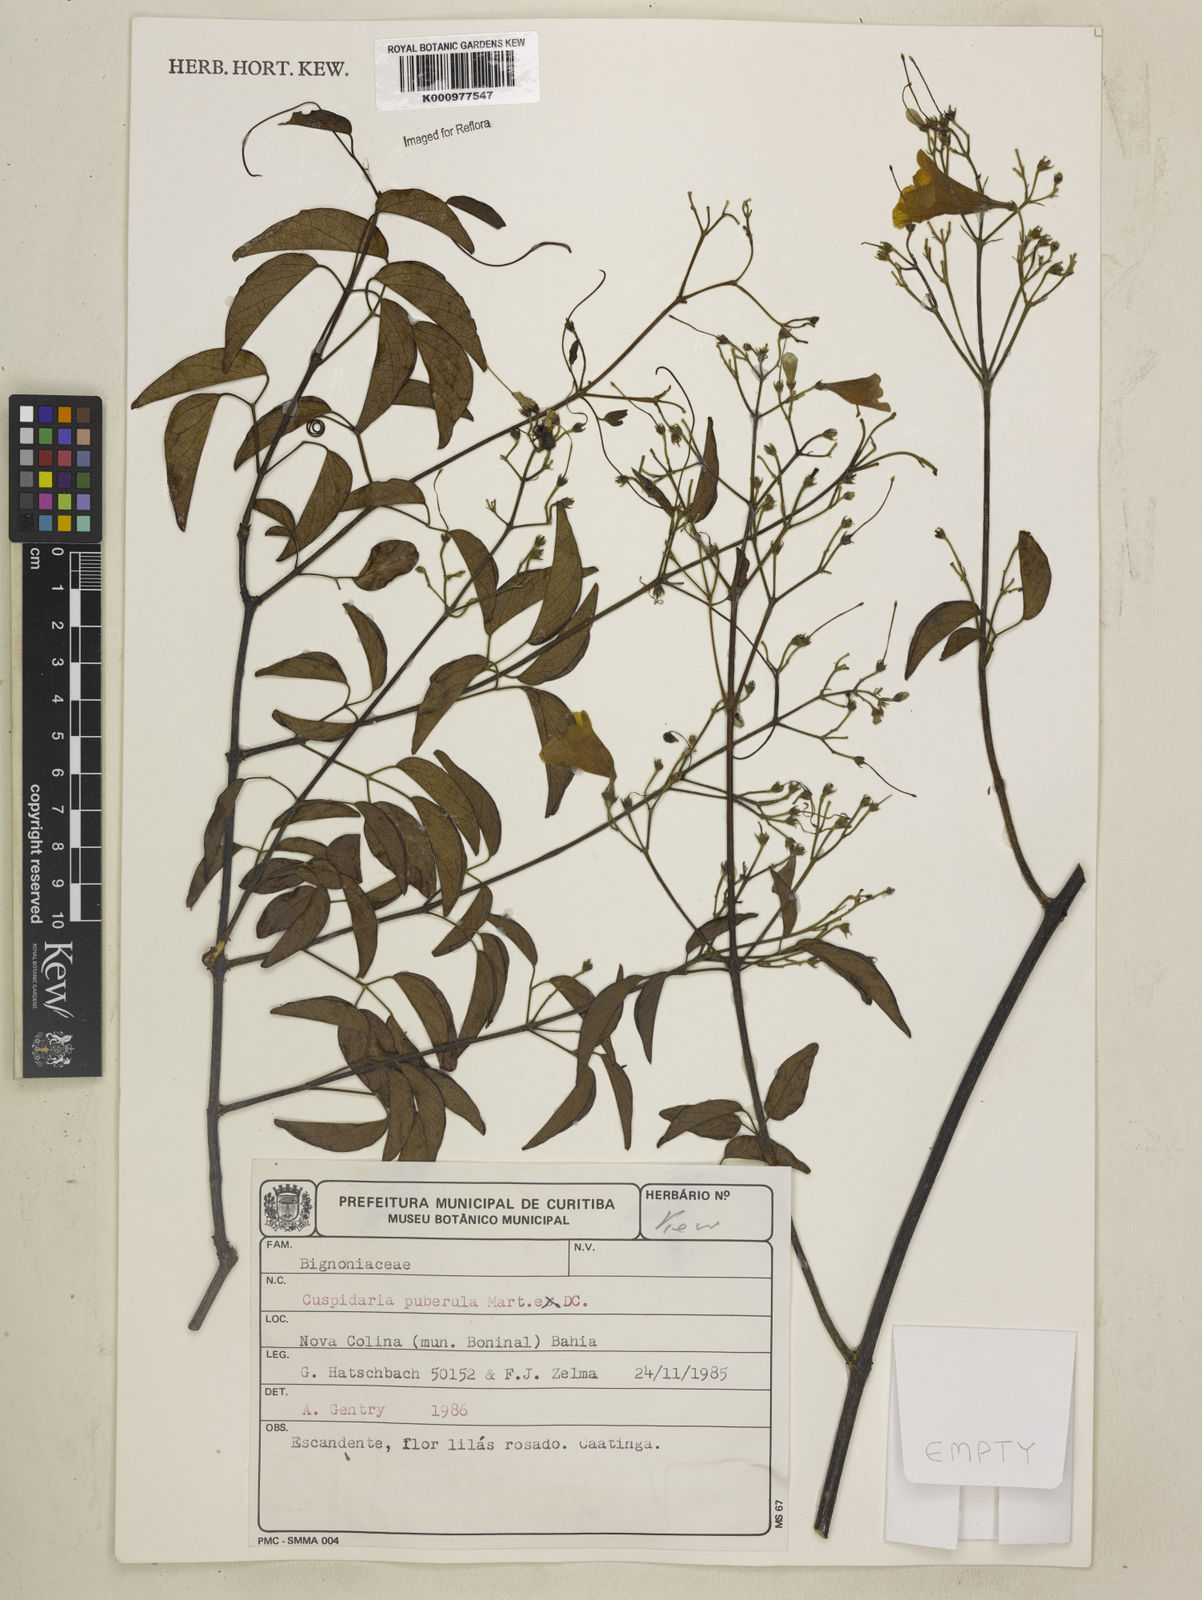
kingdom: Plantae
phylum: Tracheophyta
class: Magnoliopsida
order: Lamiales
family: Bignoniaceae
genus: Cuspidaria
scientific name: Cuspidaria simplicifolia
